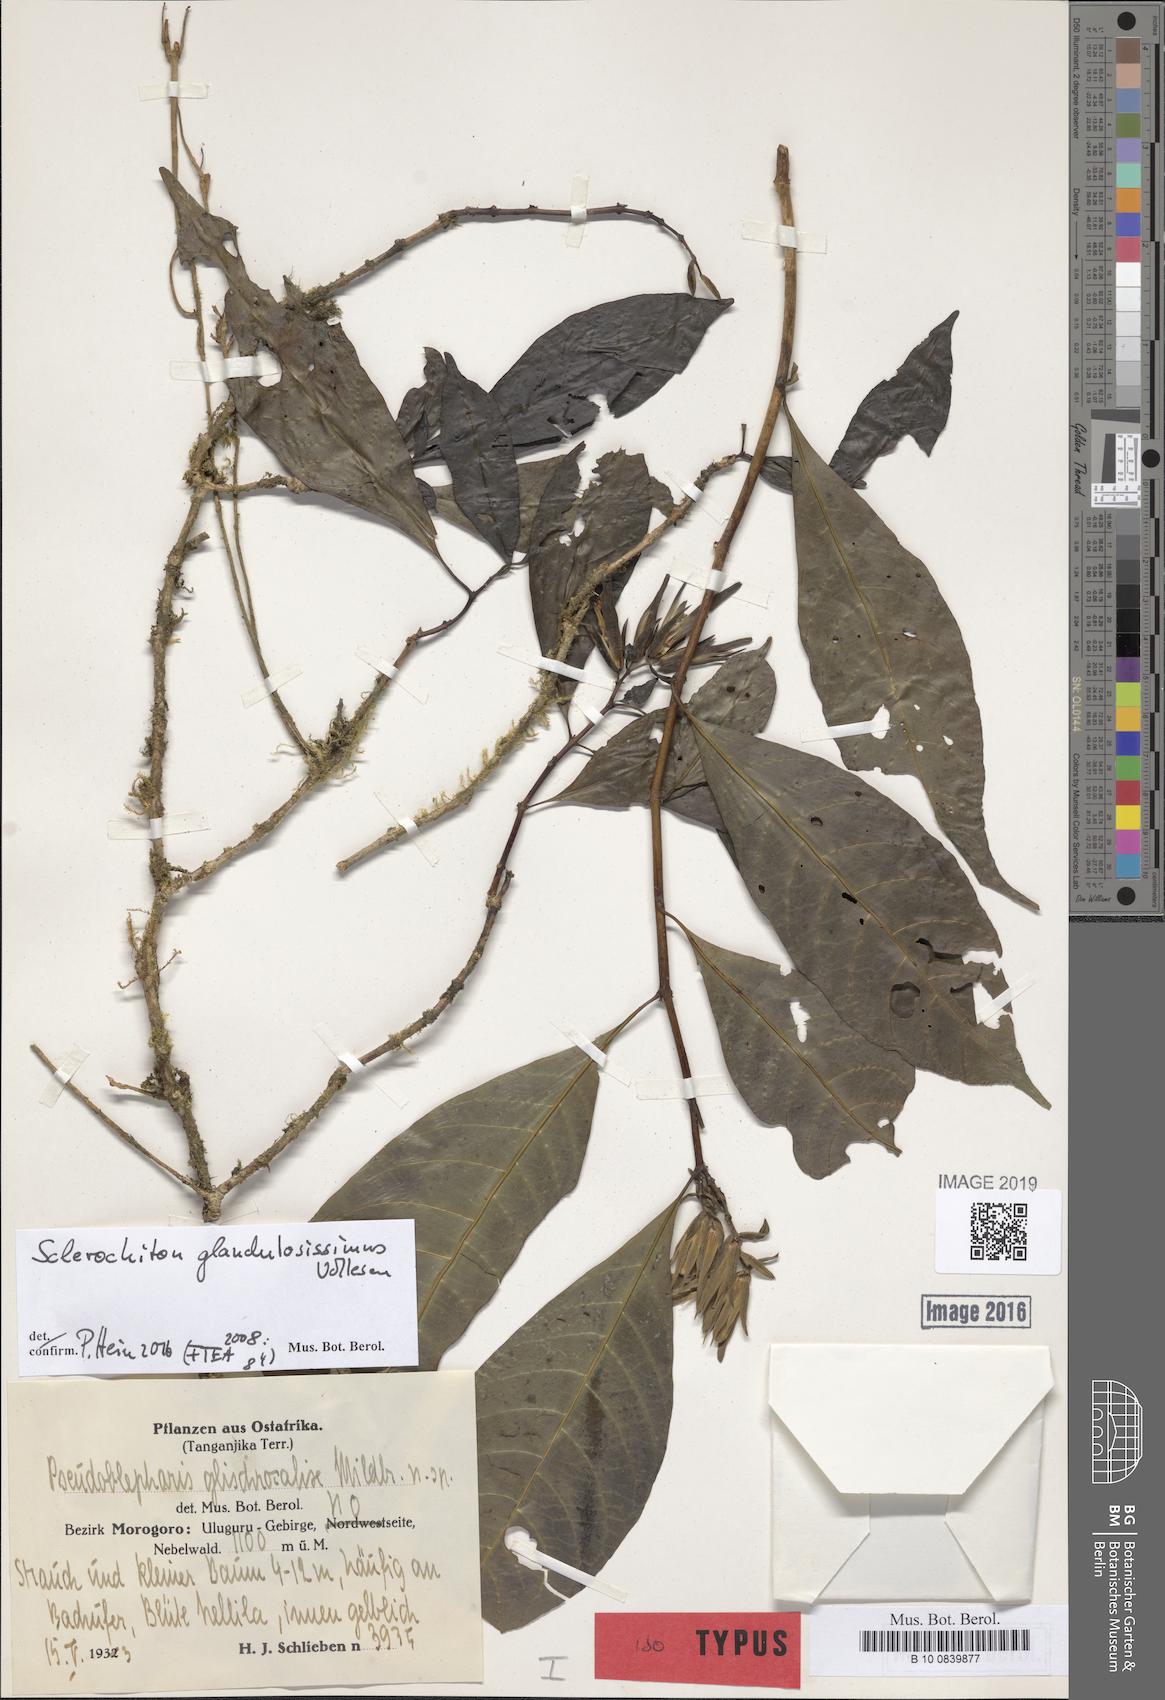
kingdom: Plantae
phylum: Tracheophyta
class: Magnoliopsida
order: Lamiales
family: Acanthaceae
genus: Sclerochiton
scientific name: Sclerochiton glandulosissimus
